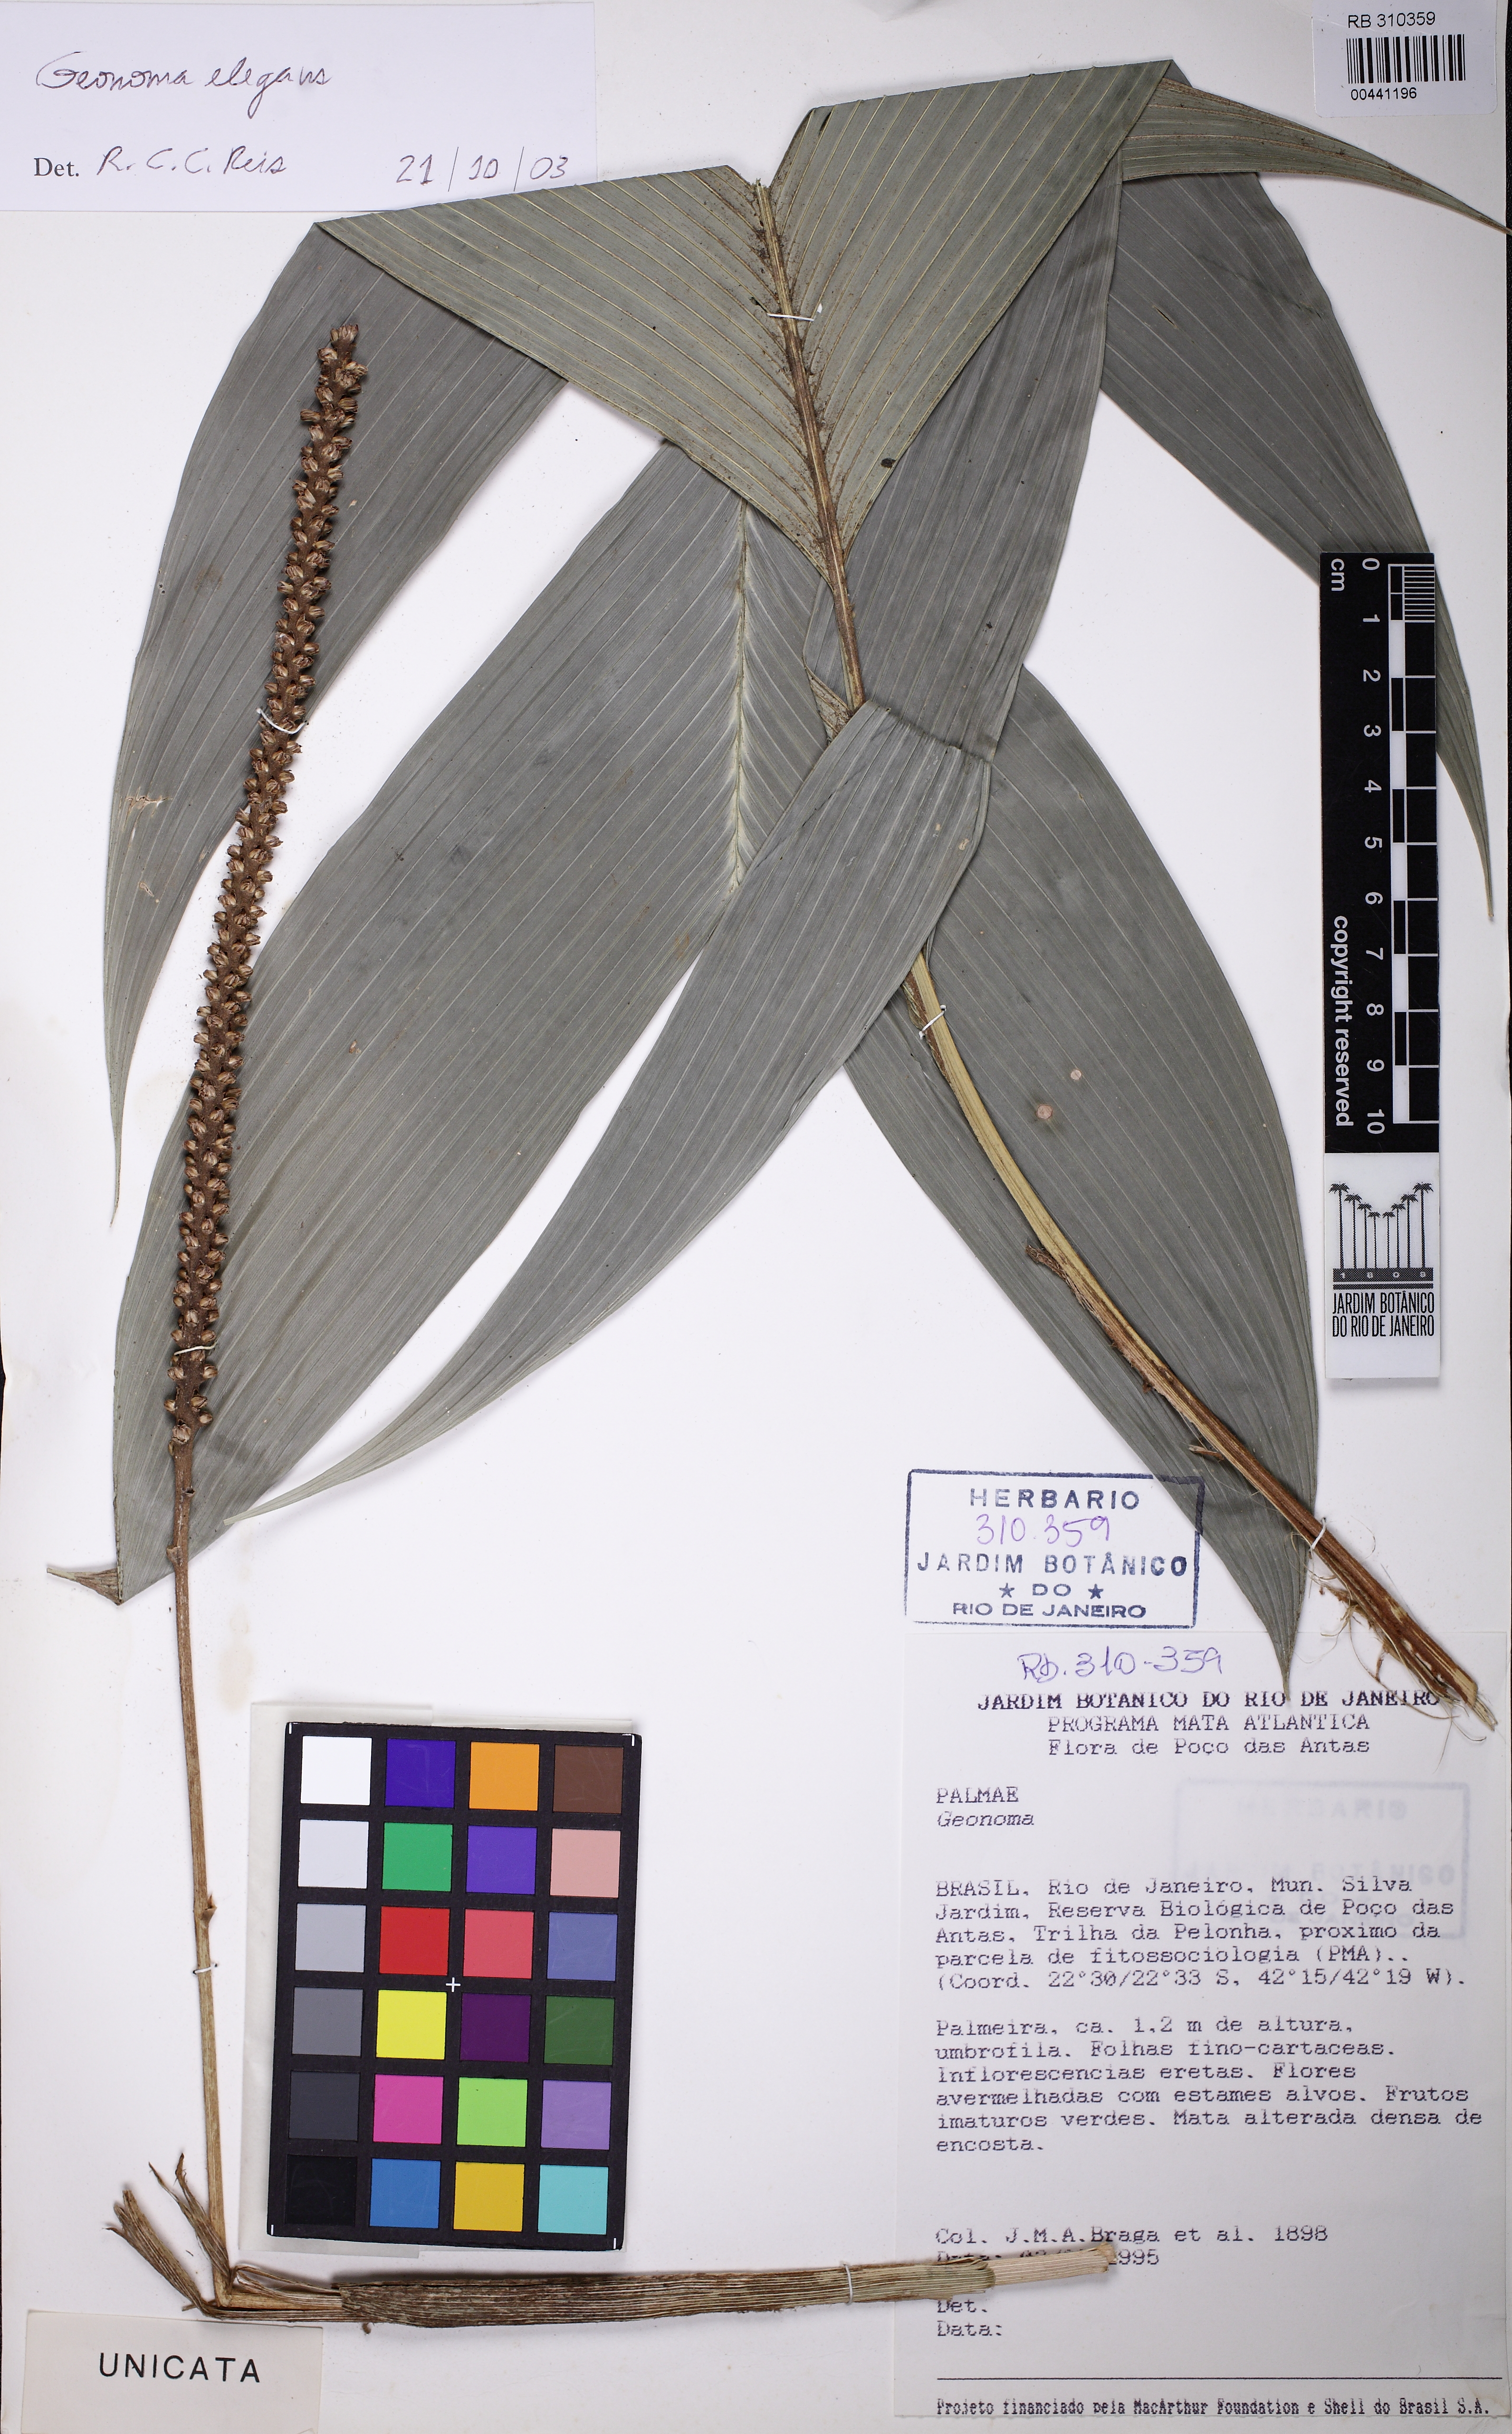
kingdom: Plantae
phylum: Tracheophyta
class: Liliopsida
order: Arecales
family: Arecaceae
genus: Geonoma
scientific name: Geonoma elegans
